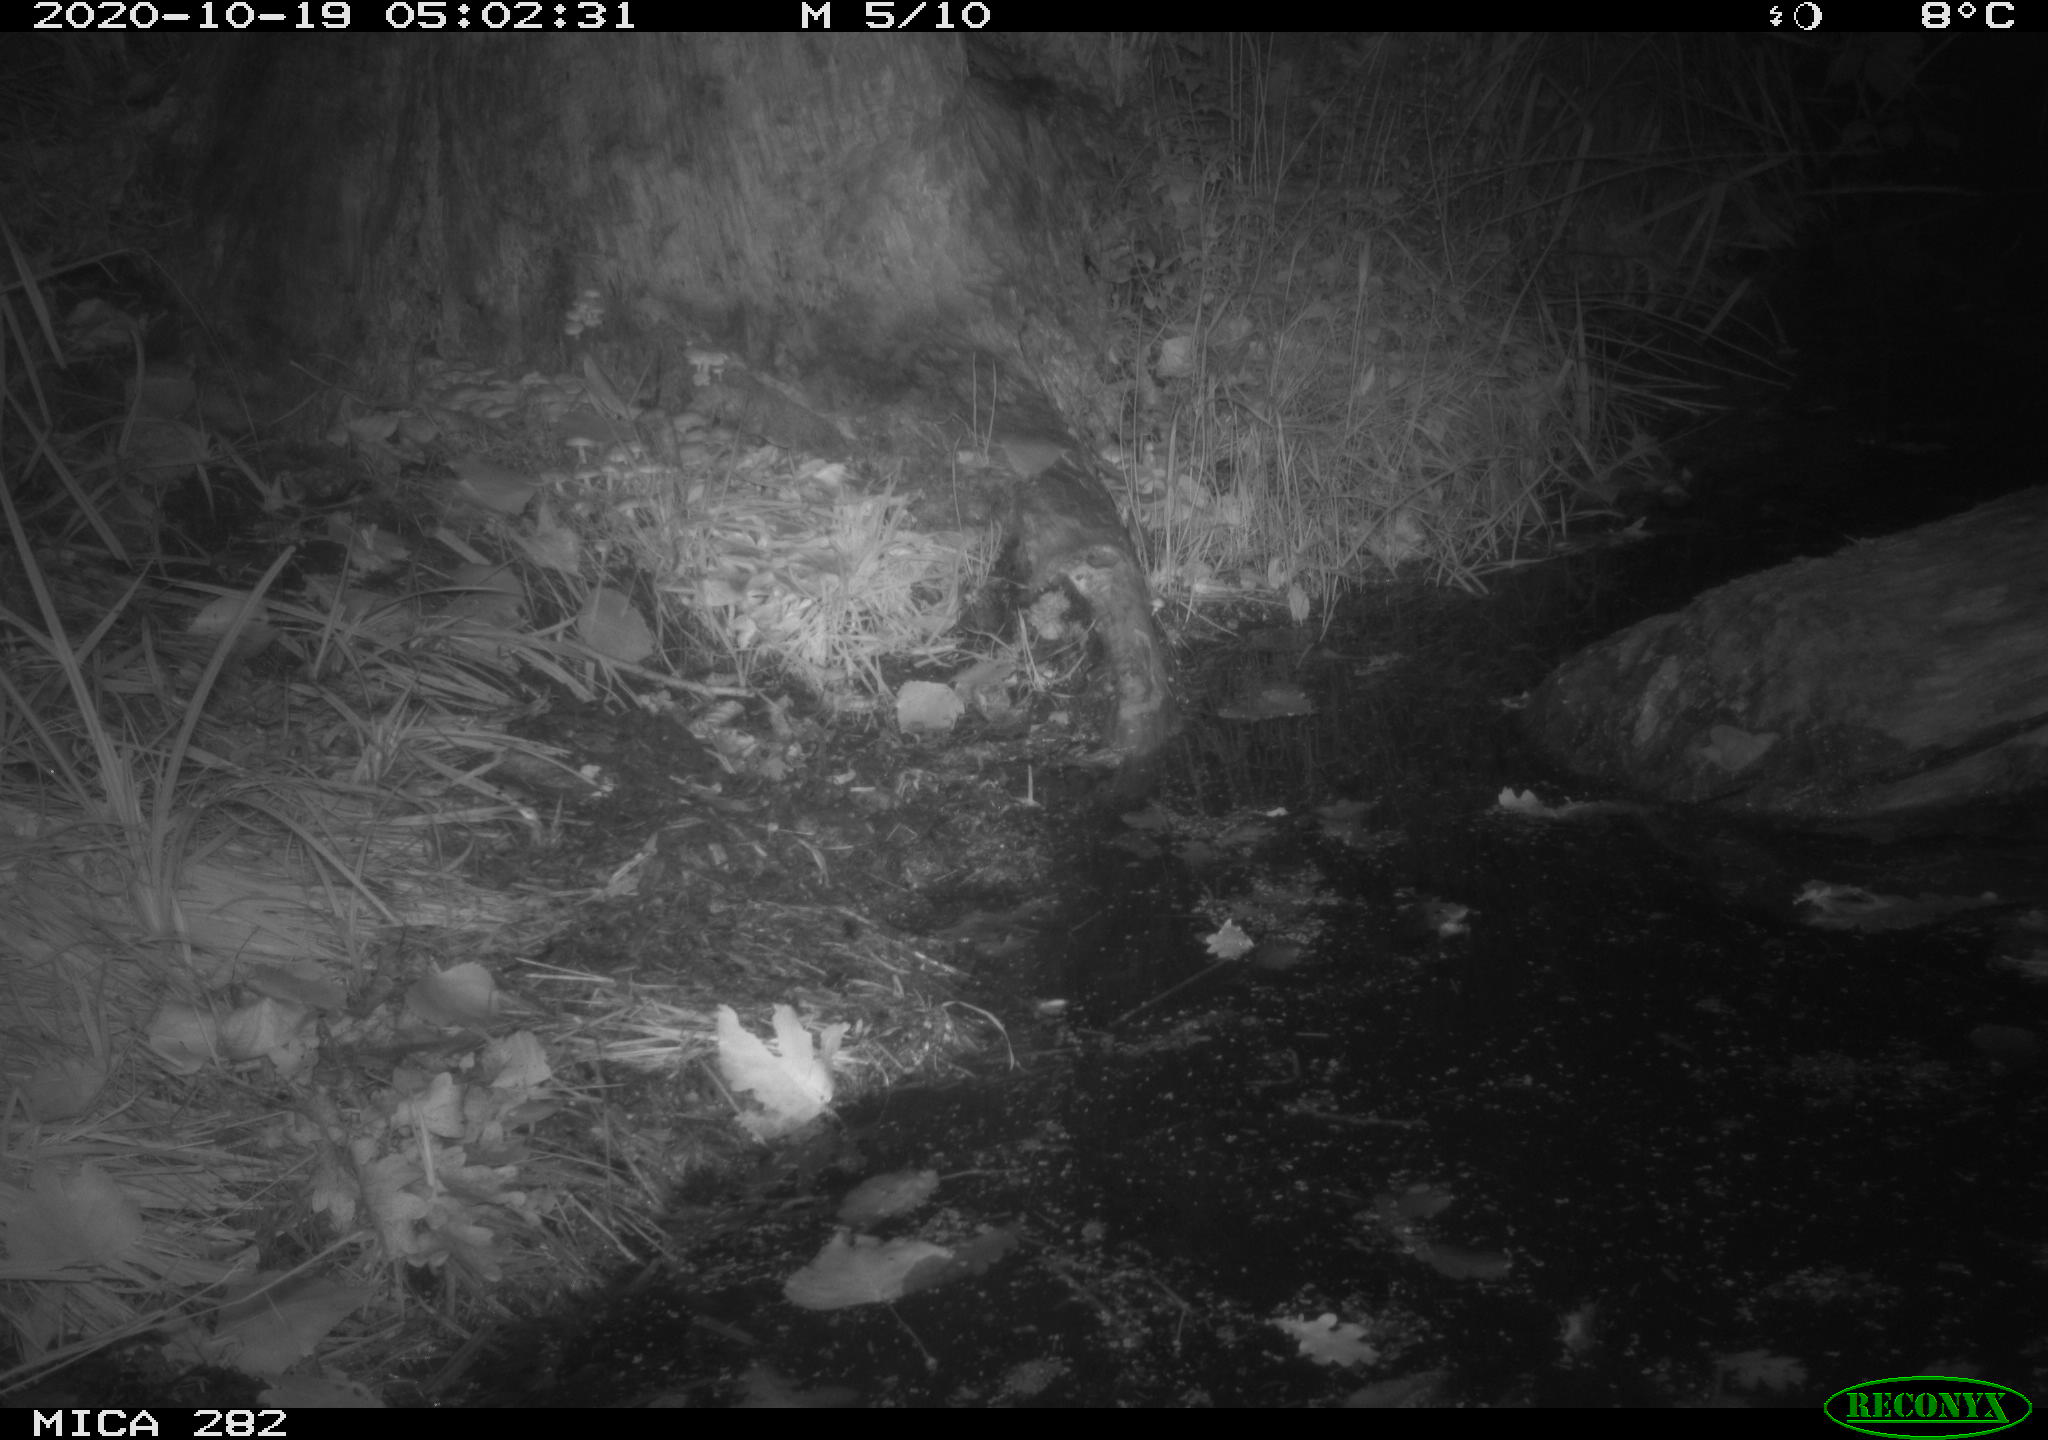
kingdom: Animalia
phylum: Chordata
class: Mammalia
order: Carnivora
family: Canidae
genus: Vulpes
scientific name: Vulpes vulpes
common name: Red fox
